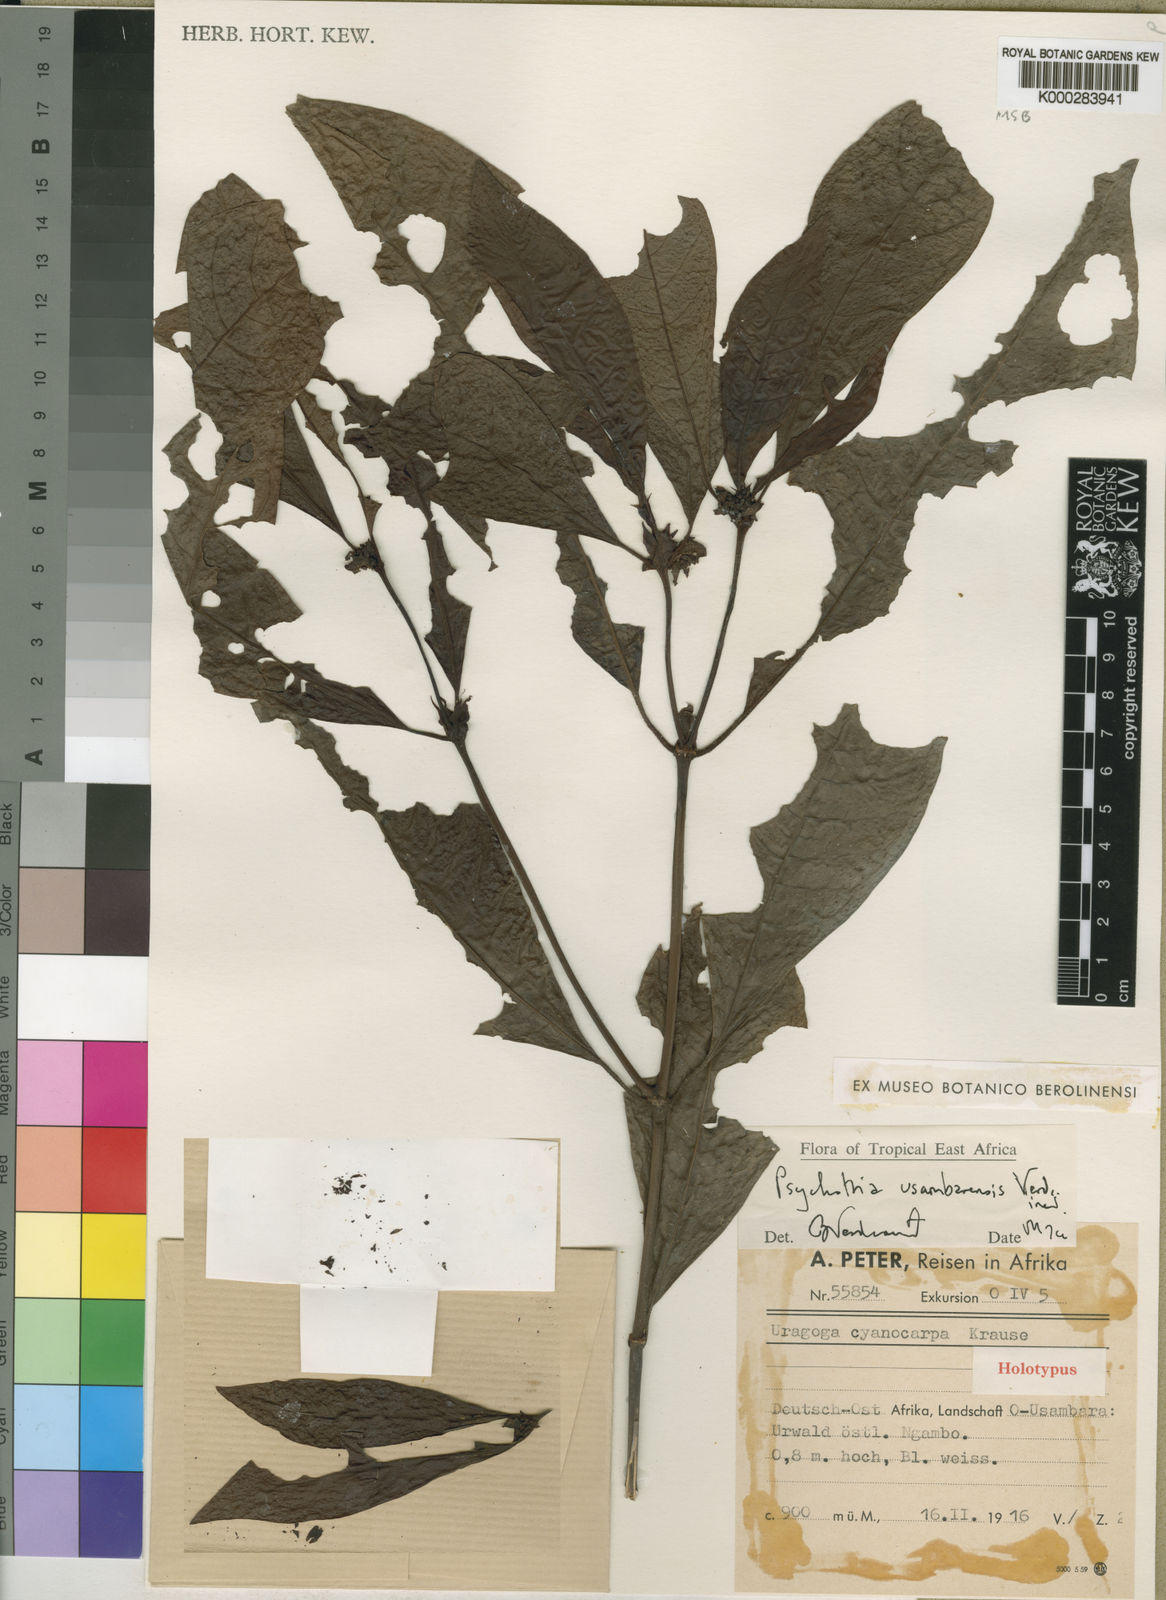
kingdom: Plantae
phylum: Tracheophyta
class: Magnoliopsida
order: Gentianales
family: Rubiaceae
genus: Psychotria
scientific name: Psychotria usambarensis
